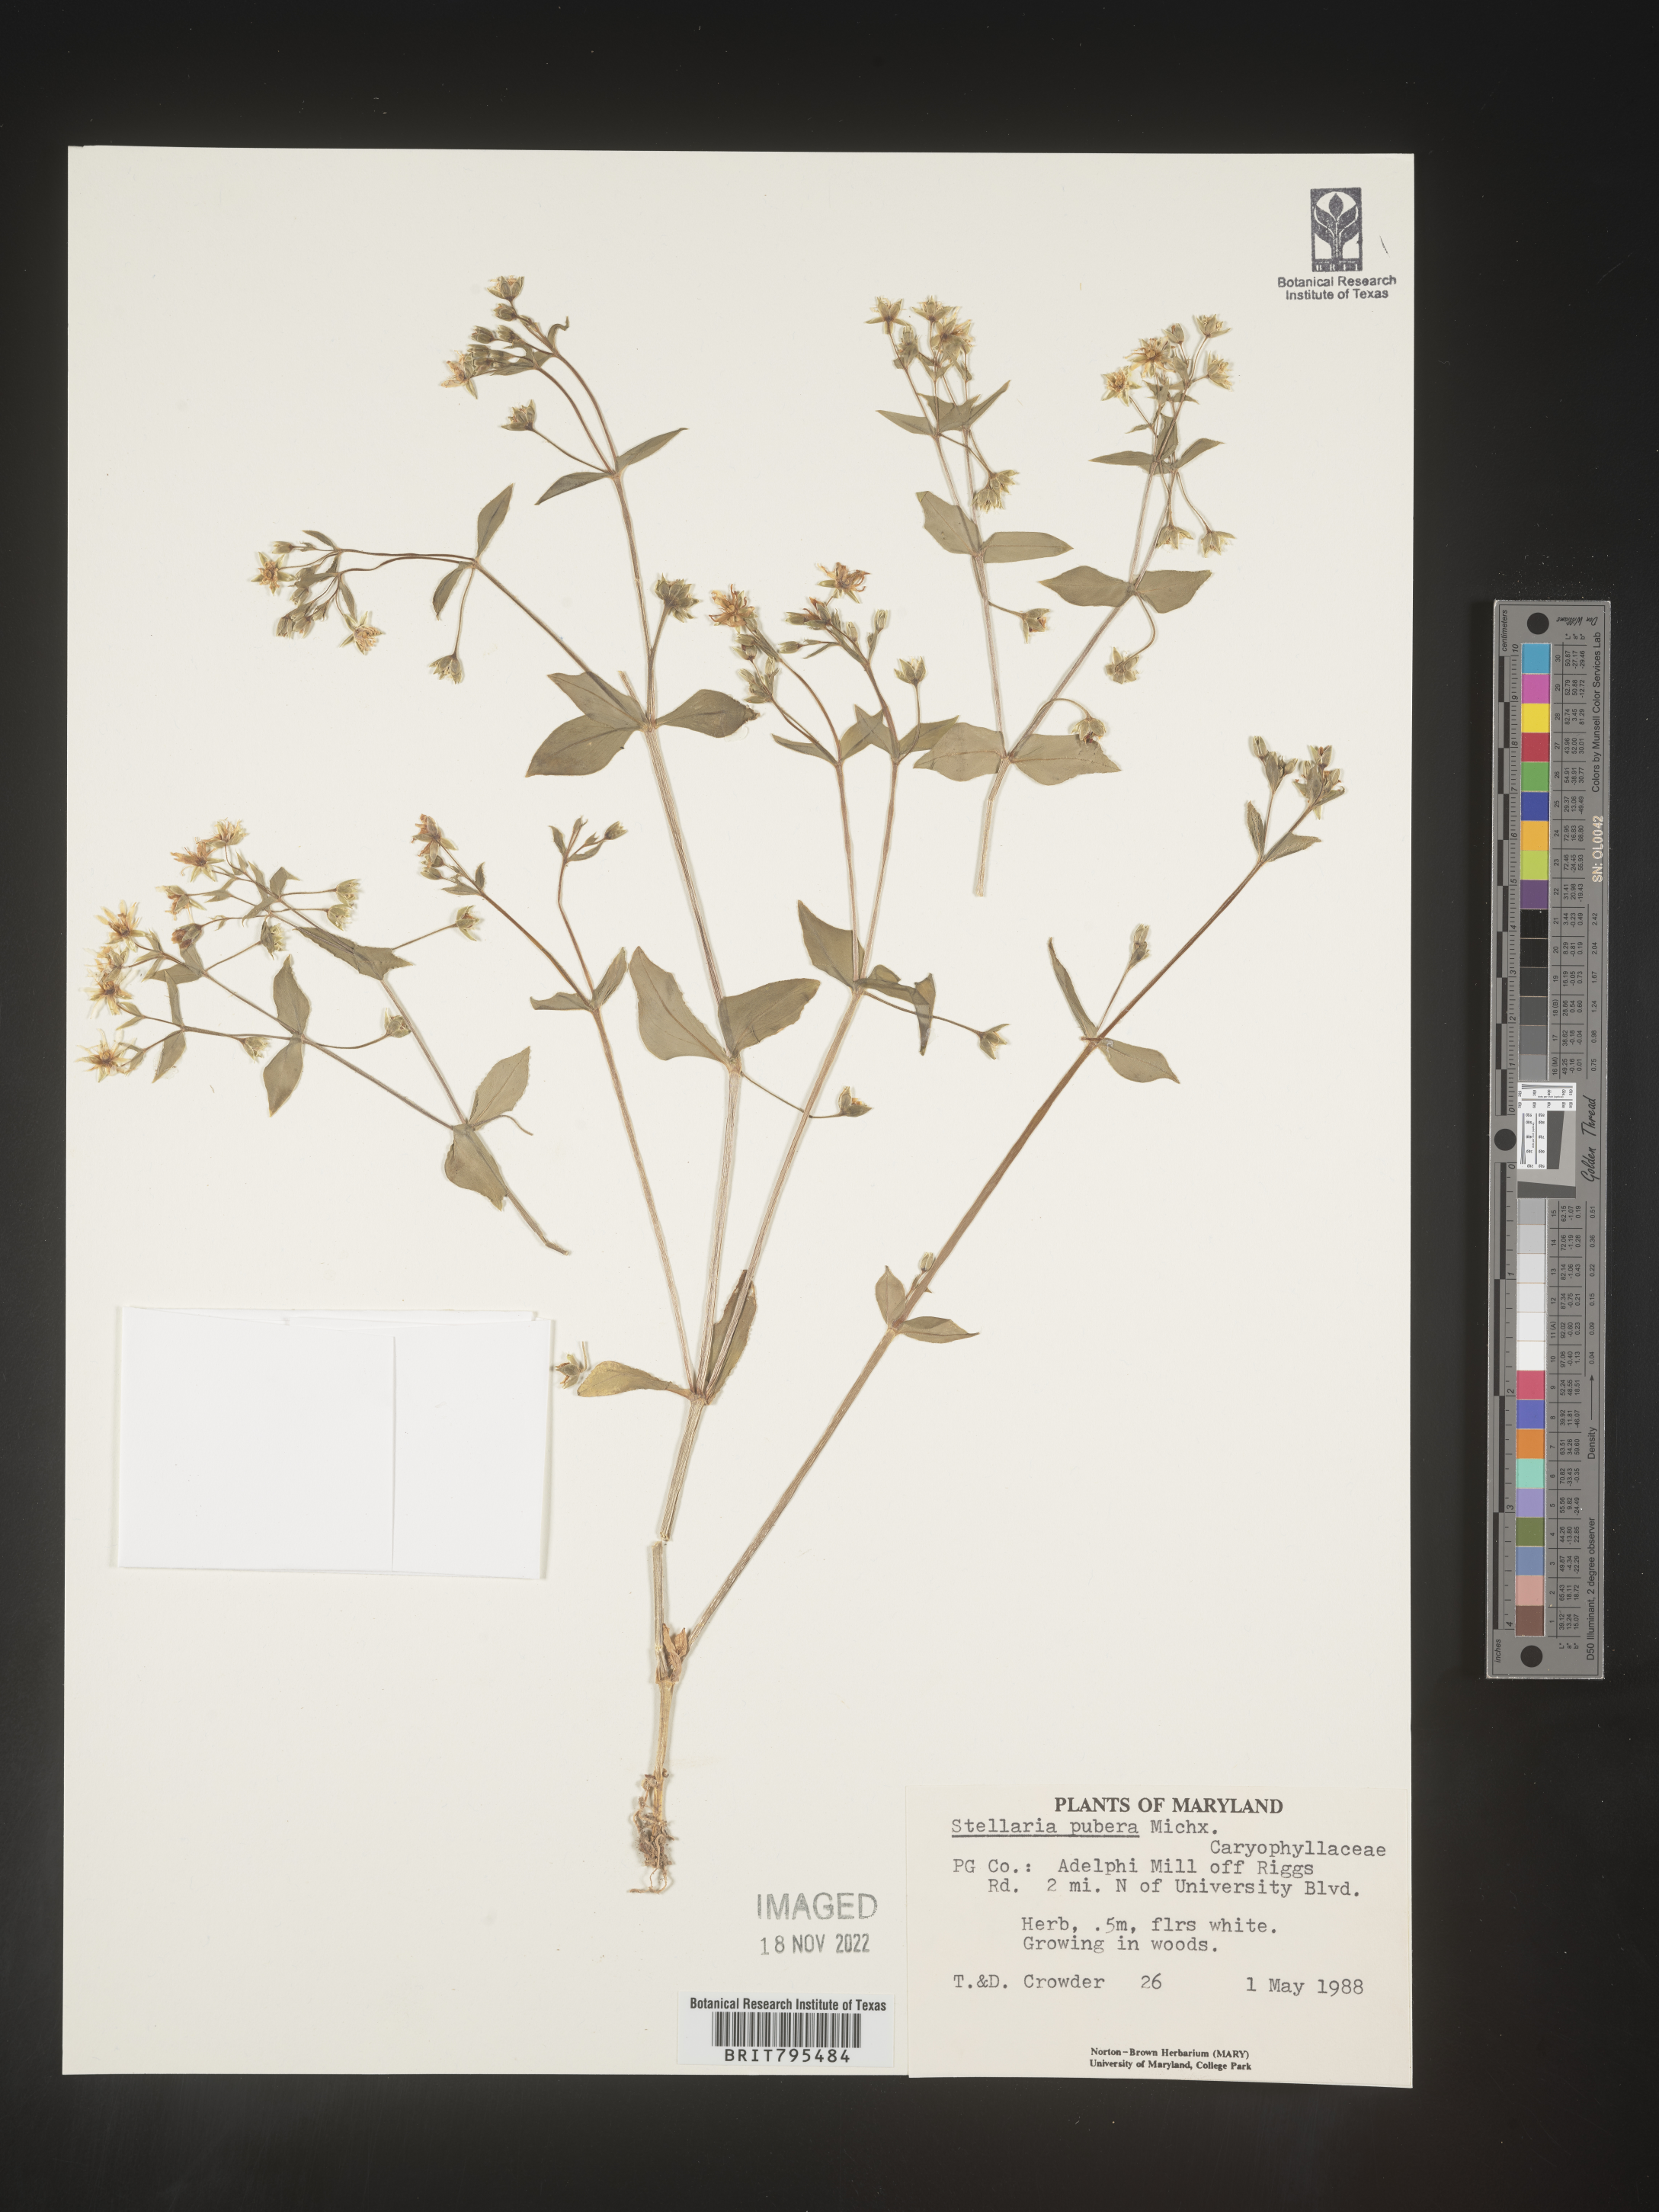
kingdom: Plantae
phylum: Tracheophyta
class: Magnoliopsida
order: Caryophyllales
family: Caryophyllaceae
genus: Stellaria
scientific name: Stellaria pubera
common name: Star chickweed
